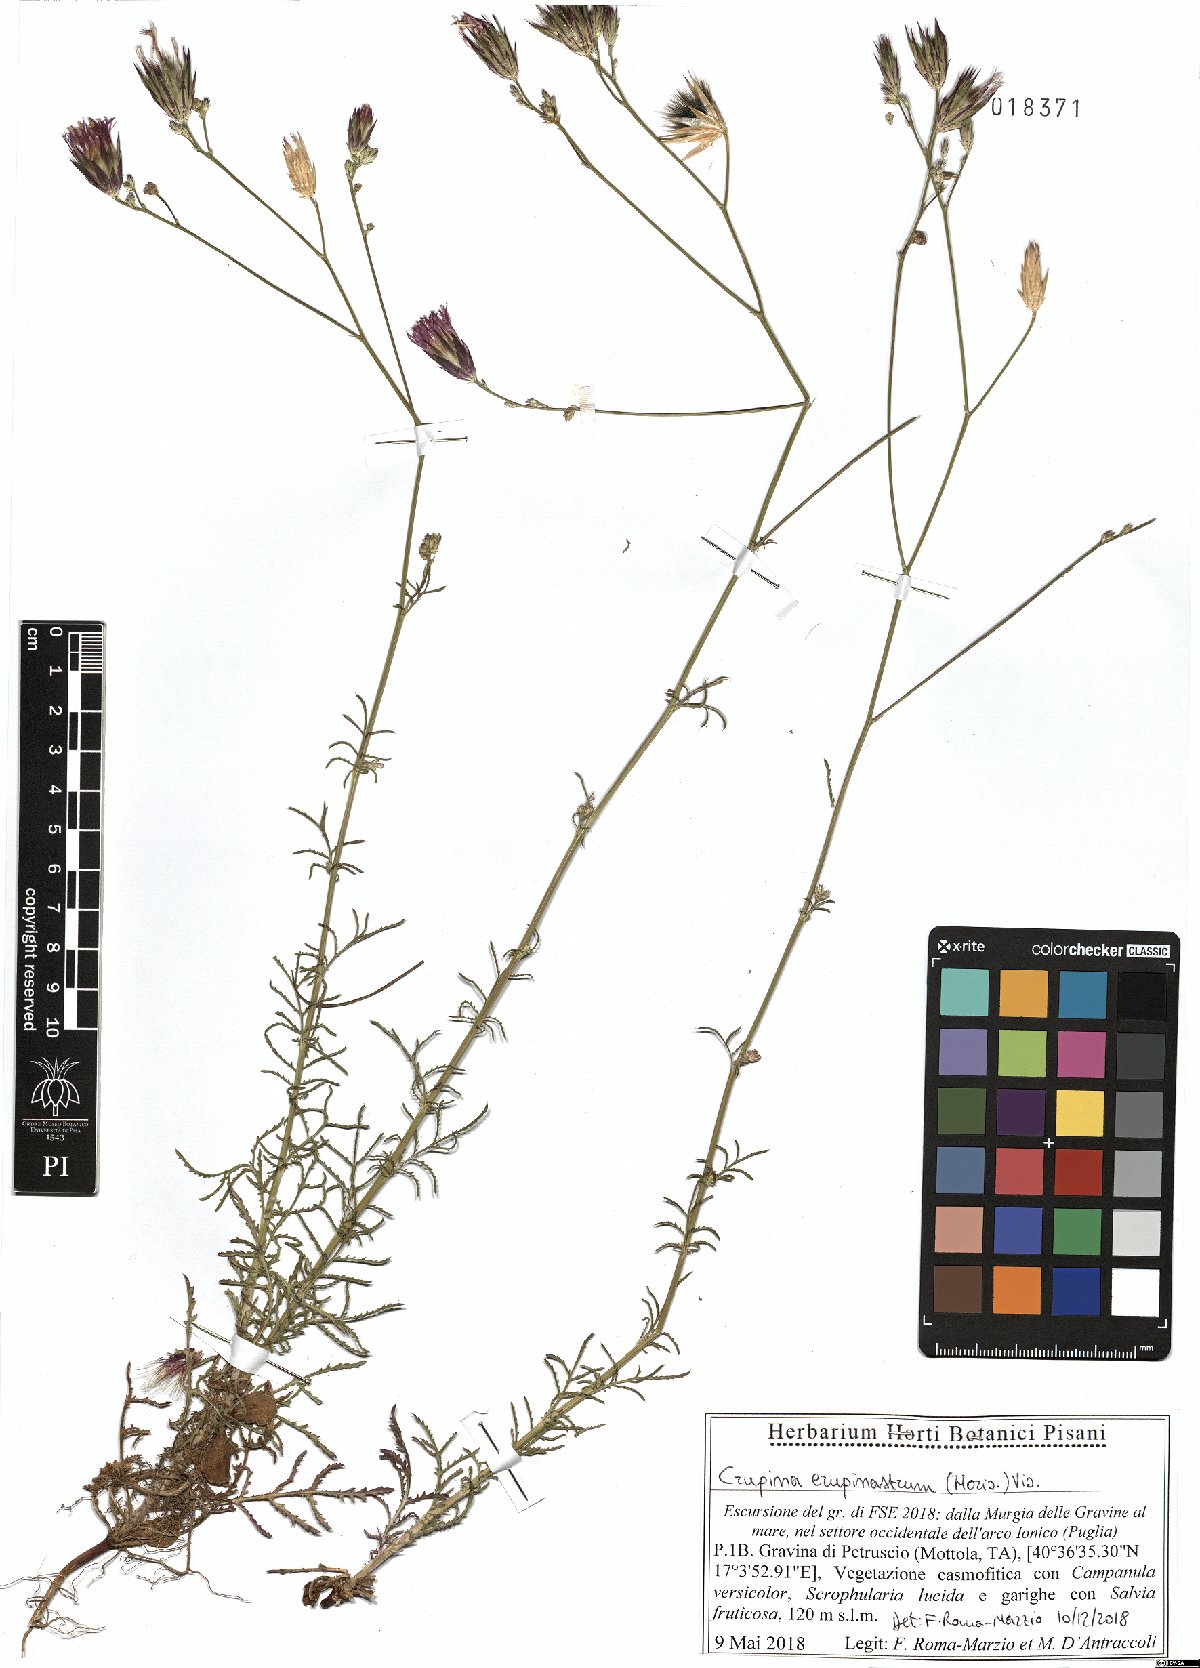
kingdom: Plantae
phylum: Tracheophyta
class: Magnoliopsida
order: Asterales
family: Asteraceae
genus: Crupina
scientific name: Crupina crupinastrum
